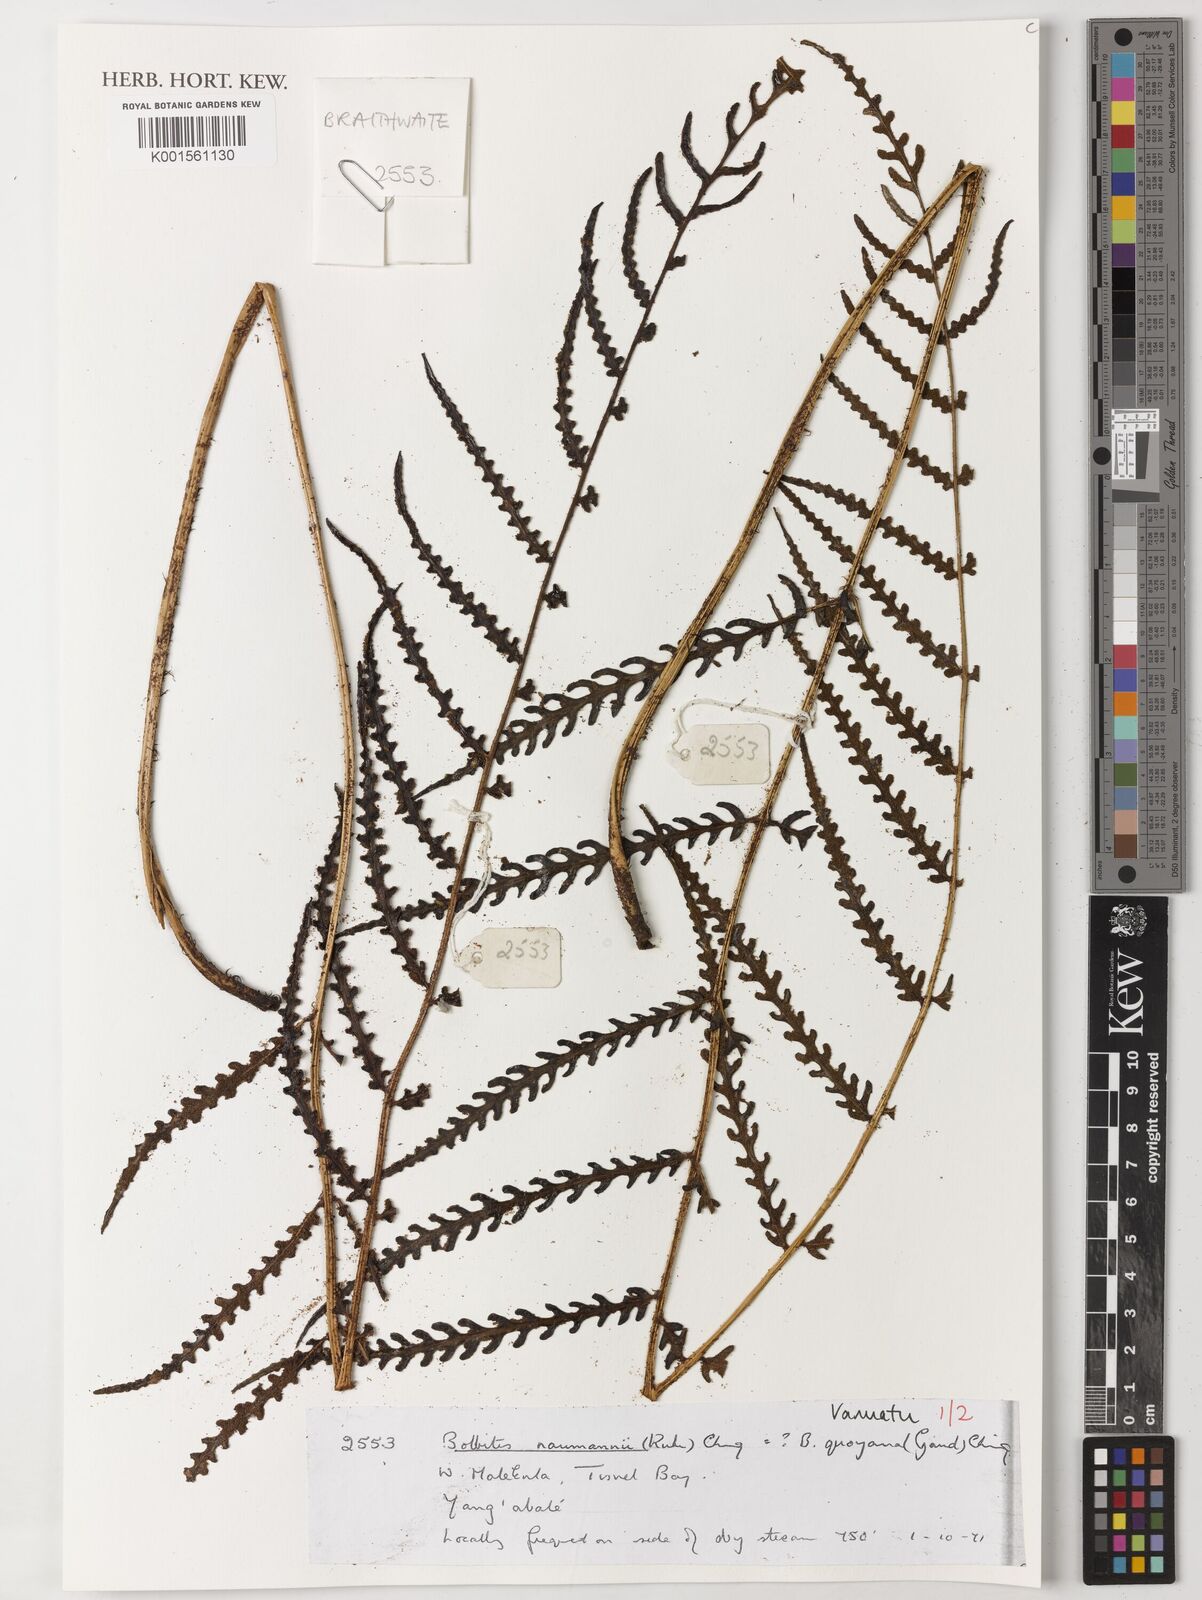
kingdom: Plantae
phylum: Tracheophyta
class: Polypodiopsida
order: Polypodiales
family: Dryopteridaceae
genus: Bolbitis
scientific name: Bolbitis quoyana
